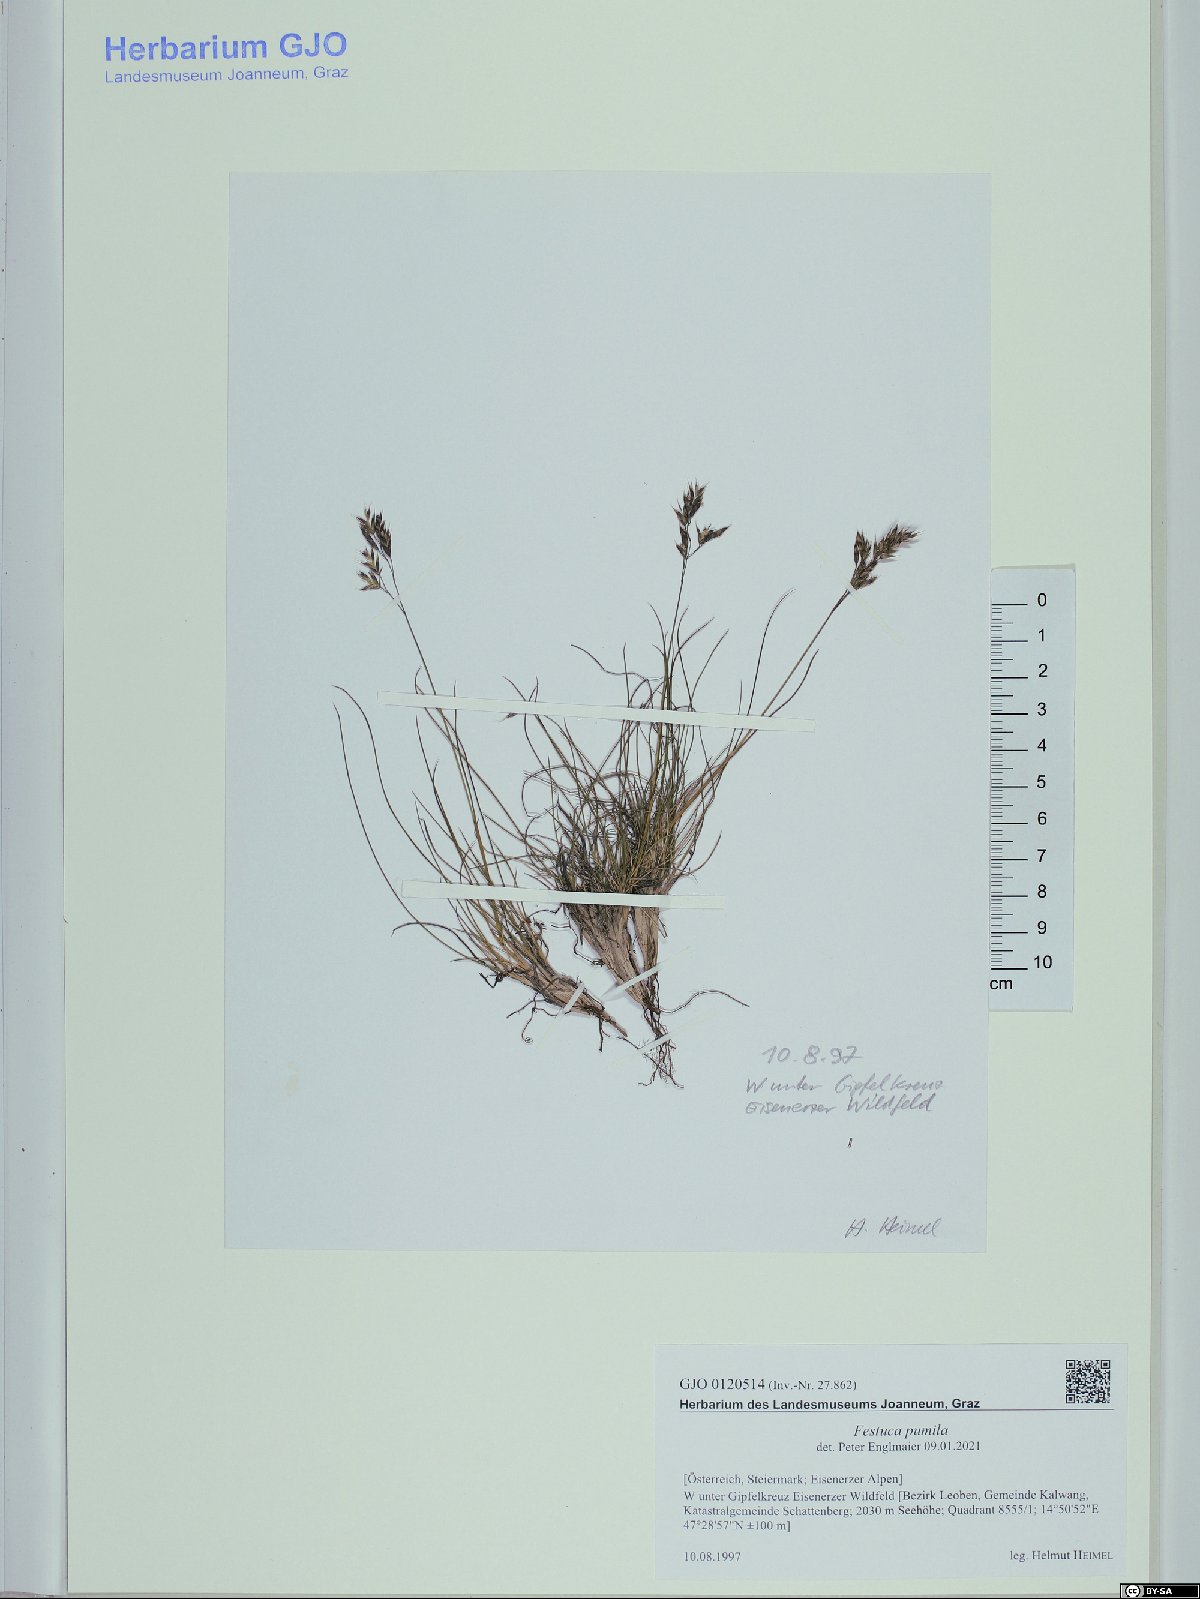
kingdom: Plantae
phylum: Tracheophyta
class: Liliopsida
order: Poales
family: Poaceae
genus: Festuca
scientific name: Festuca quadriflora
